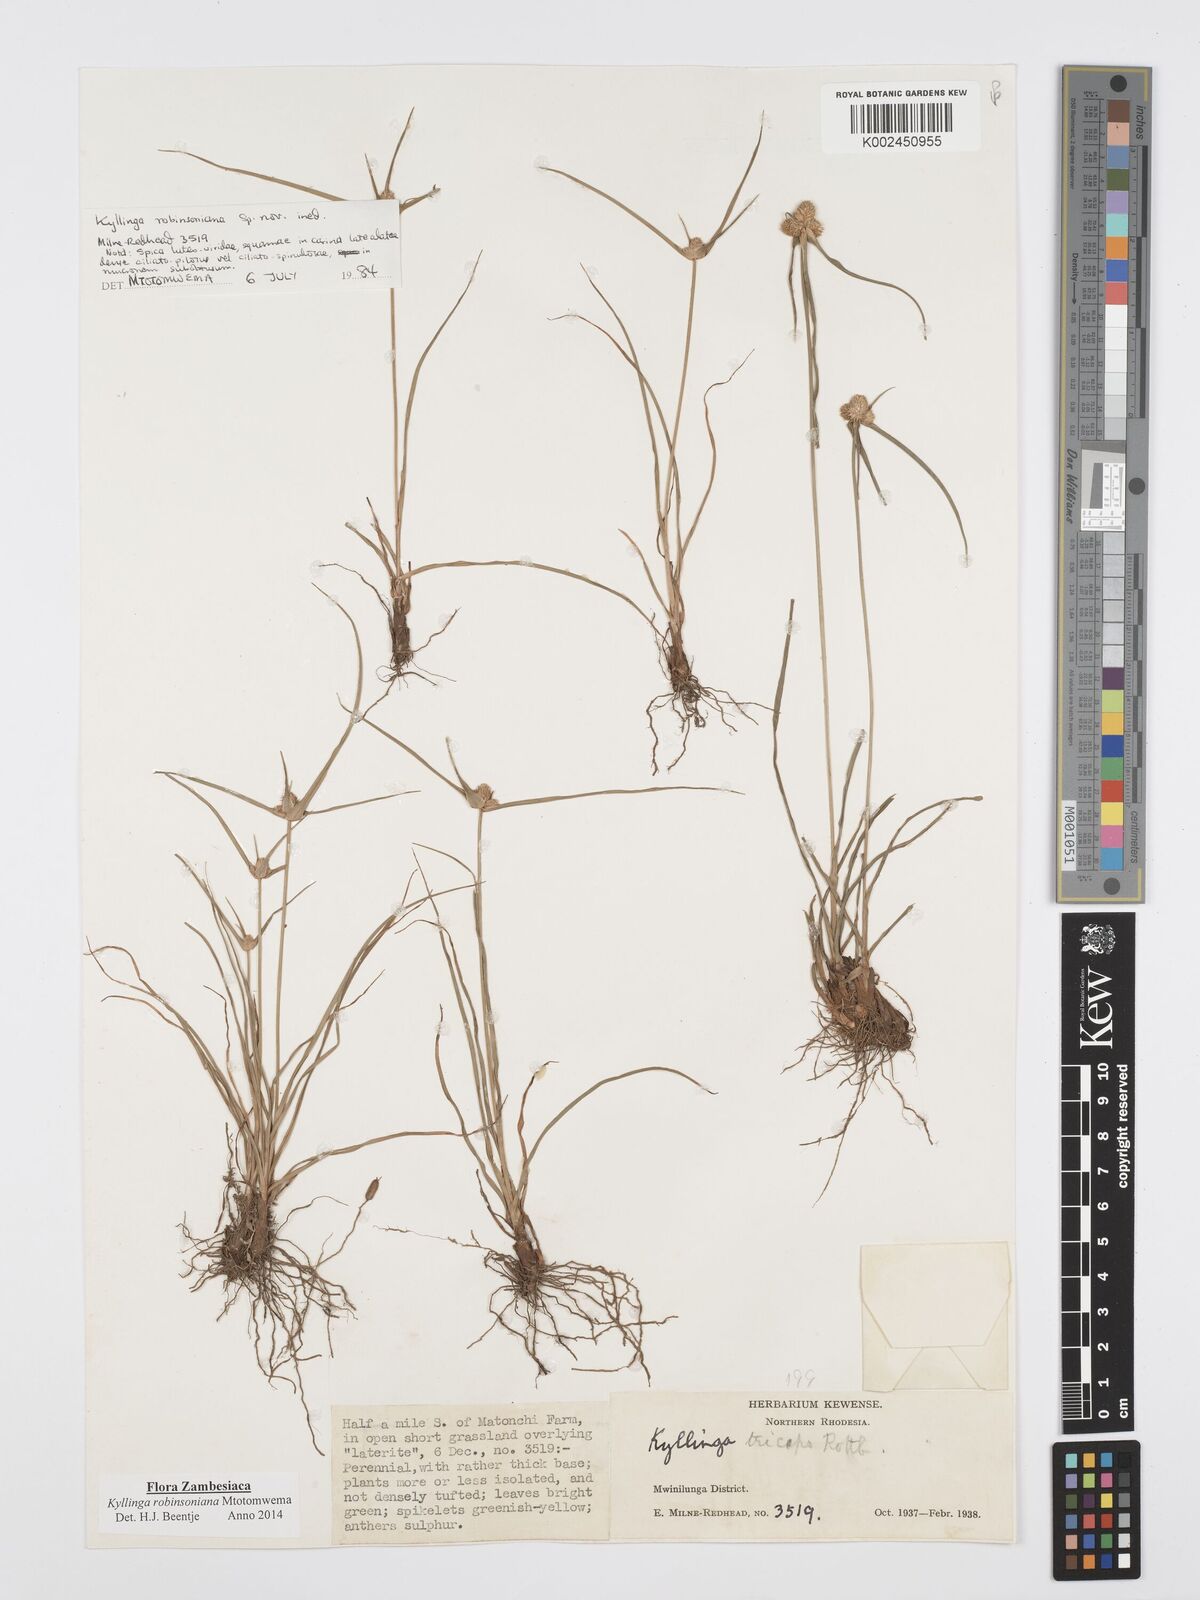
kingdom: Plantae
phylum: Tracheophyta
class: Liliopsida
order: Poales
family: Cyperaceae
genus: Cyperus
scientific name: Cyperus robinsonianus
